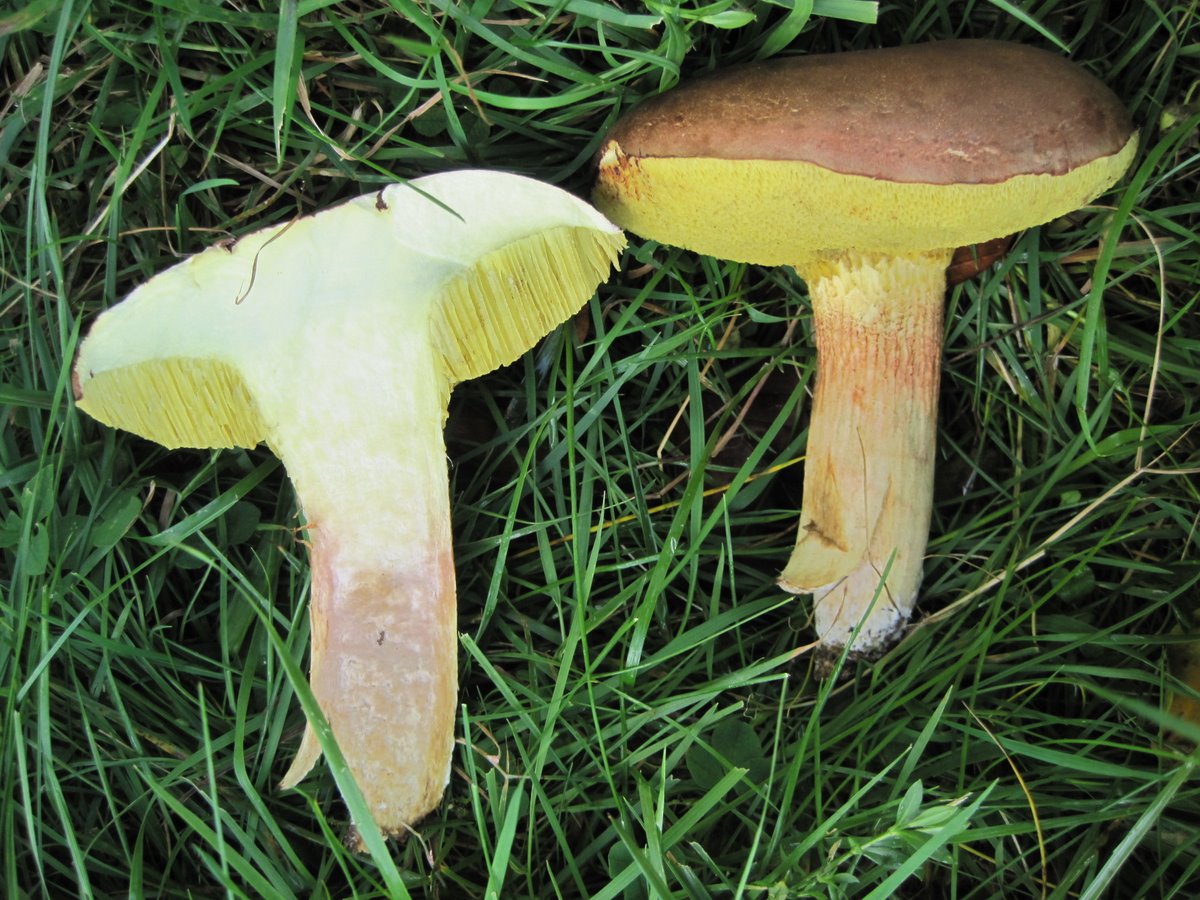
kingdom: Fungi
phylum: Basidiomycota
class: Agaricomycetes
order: Boletales
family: Boletaceae
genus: Xerocomus
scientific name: Xerocomus ferrugineus
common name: vaskeskinds-rørhat
